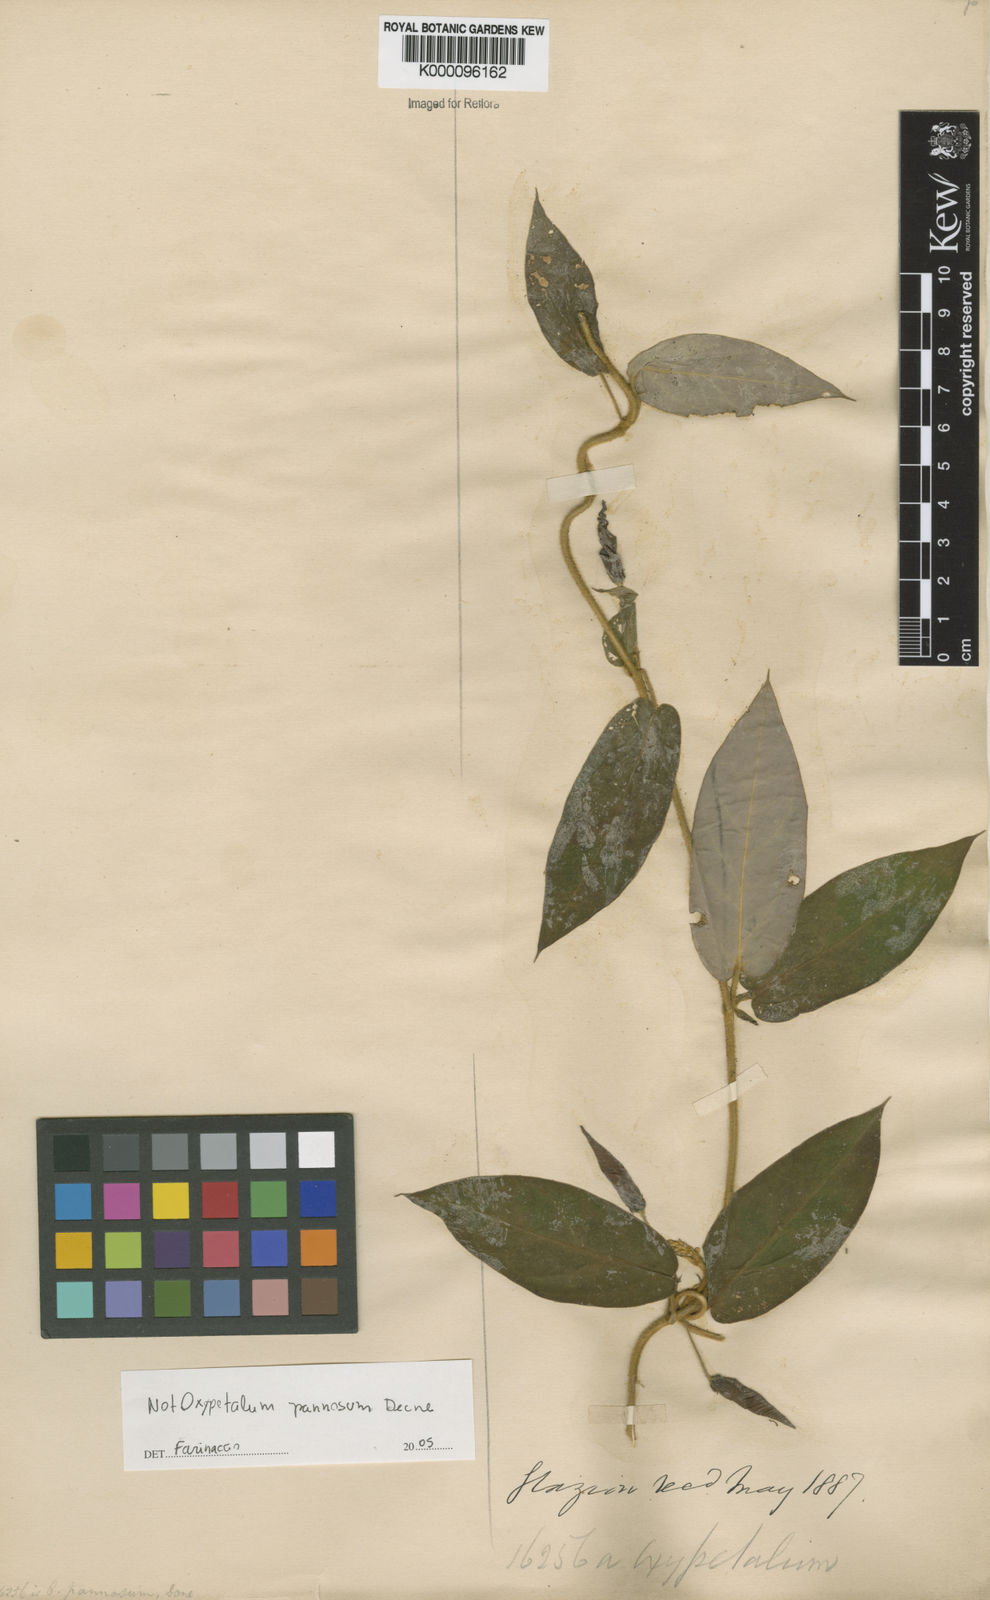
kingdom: Plantae
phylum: Tracheophyta
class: Magnoliopsida
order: Gentianales
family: Apocynaceae
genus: Oxypetalum
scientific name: Oxypetalum pannosum
